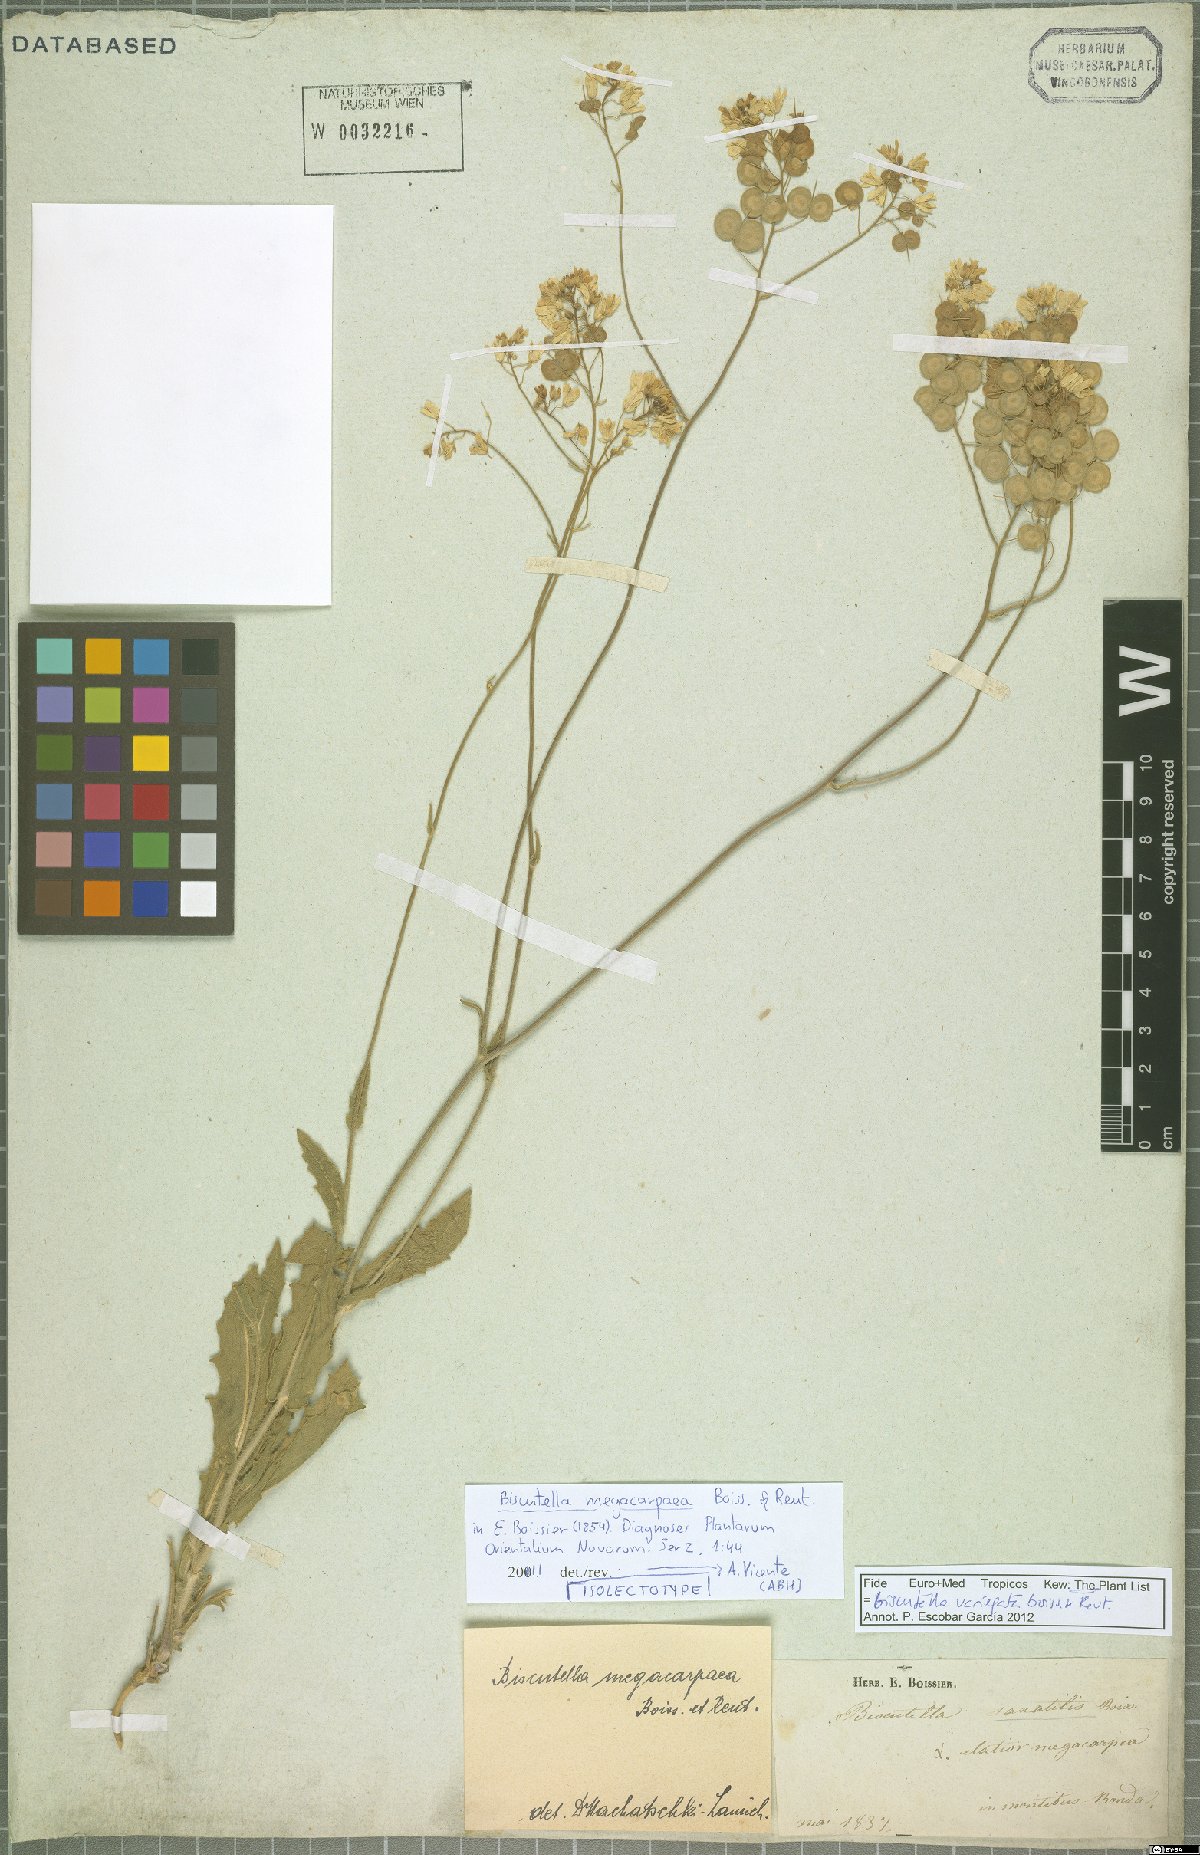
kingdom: Plantae
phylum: Tracheophyta
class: Magnoliopsida
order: Brassicales
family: Brassicaceae
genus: Biscutella
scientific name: Biscutella variegata
